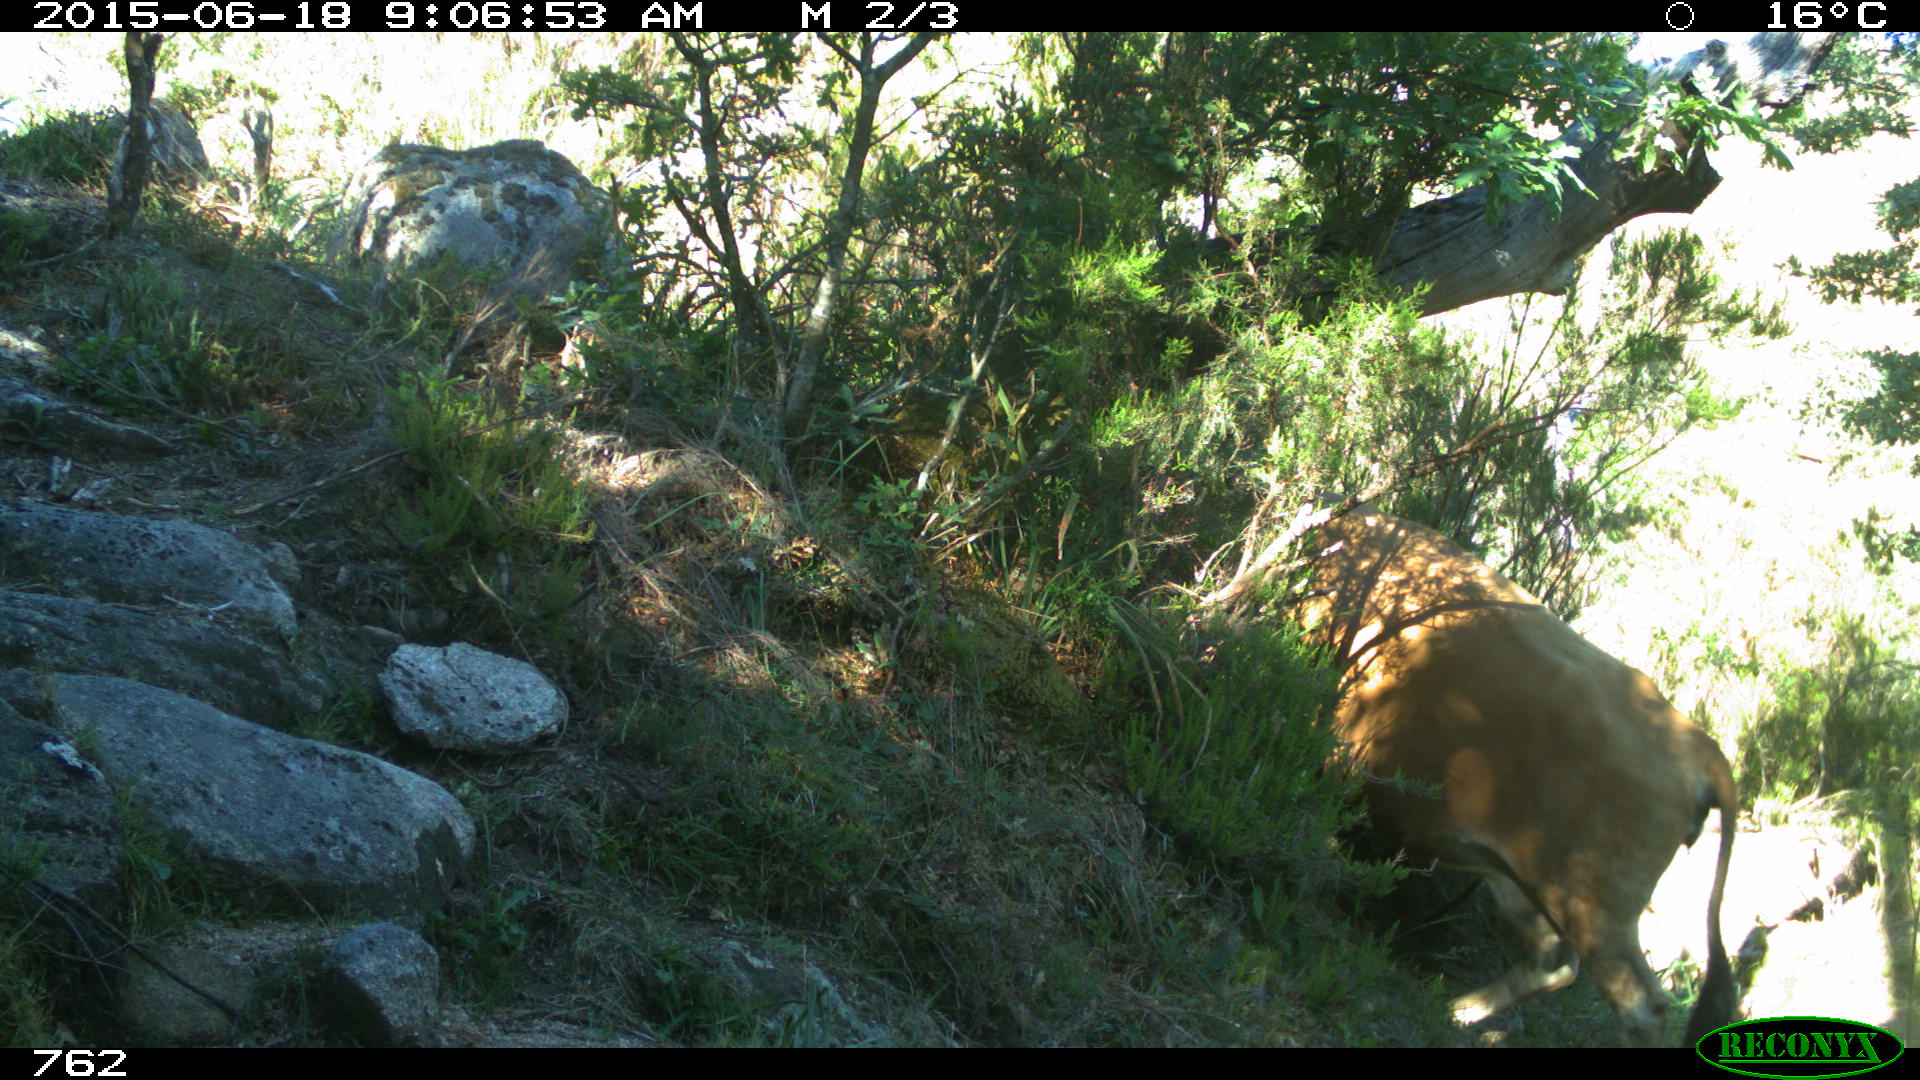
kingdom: Animalia
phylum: Chordata
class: Mammalia
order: Artiodactyla
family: Bovidae
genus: Bos
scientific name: Bos taurus
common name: Domesticated cattle
